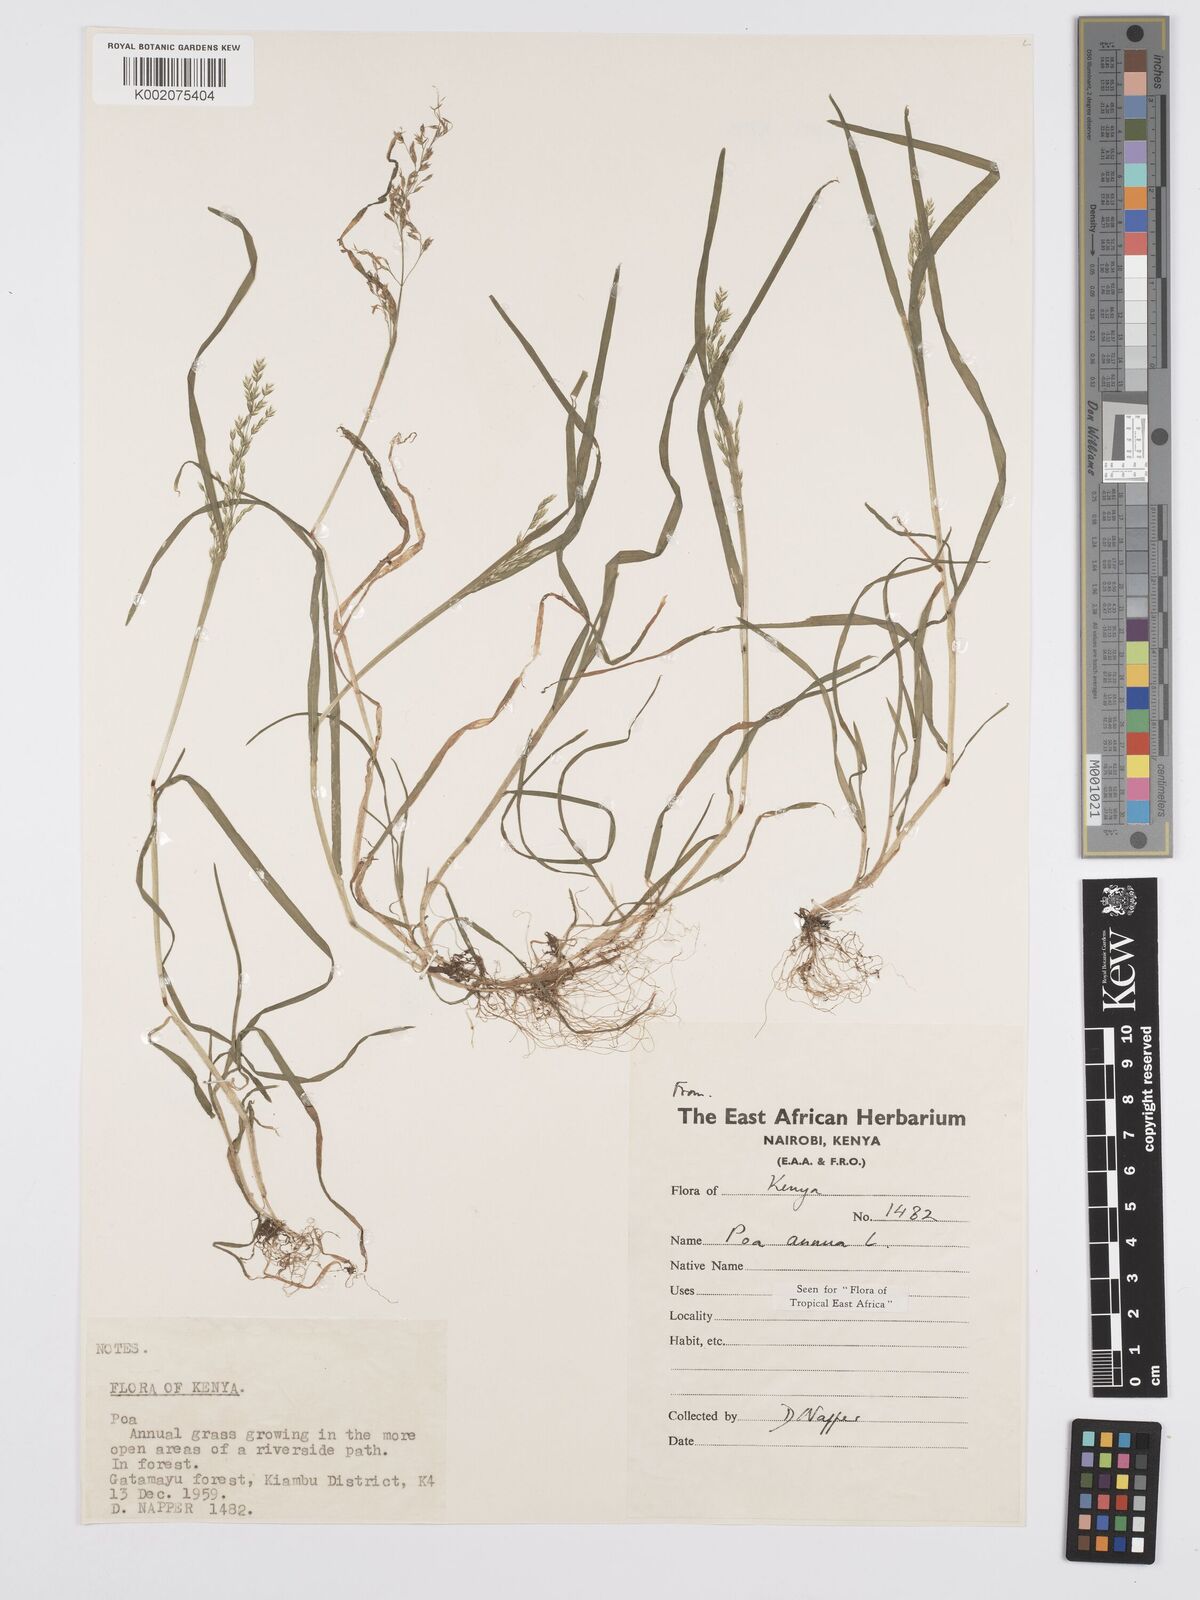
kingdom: Plantae
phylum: Tracheophyta
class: Liliopsida
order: Poales
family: Poaceae
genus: Poa
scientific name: Poa annua
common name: Annual bluegrass
